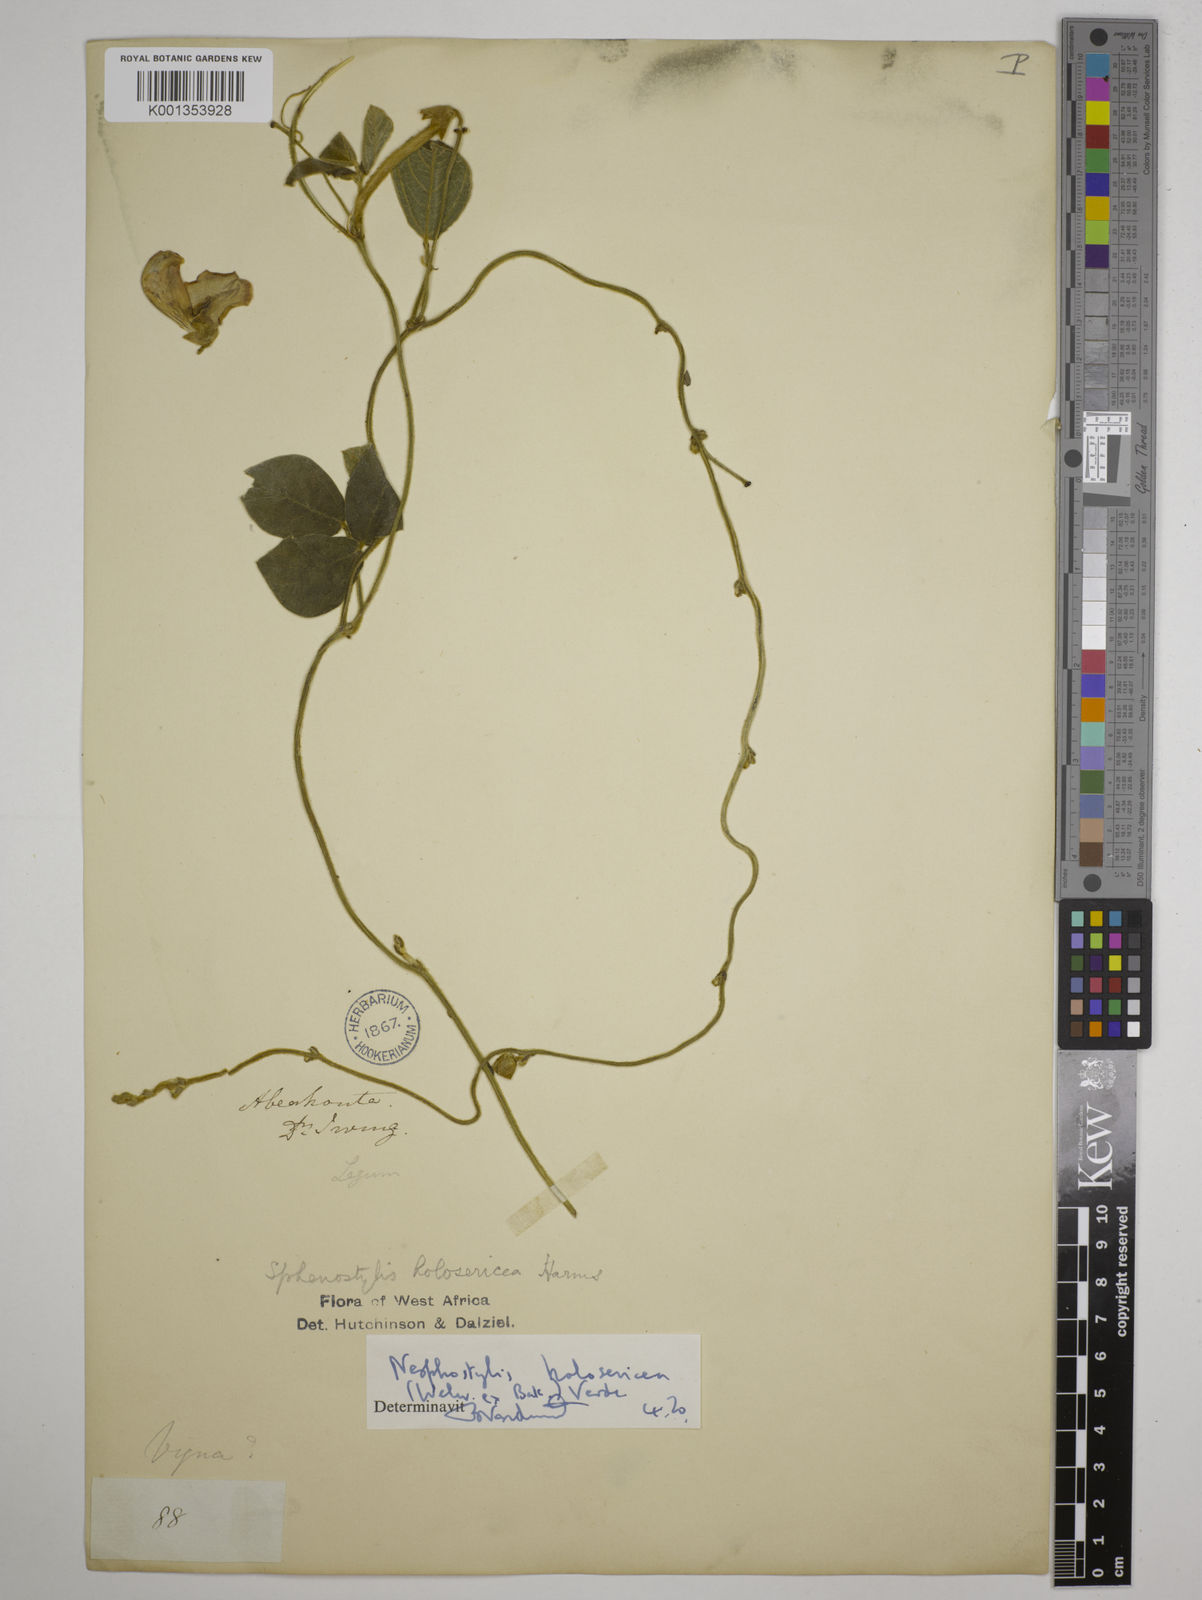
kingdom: Plantae
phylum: Tracheophyta
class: Magnoliopsida
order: Fabales
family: Fabaceae
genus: Nesphostylis
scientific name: Nesphostylis holosericea
